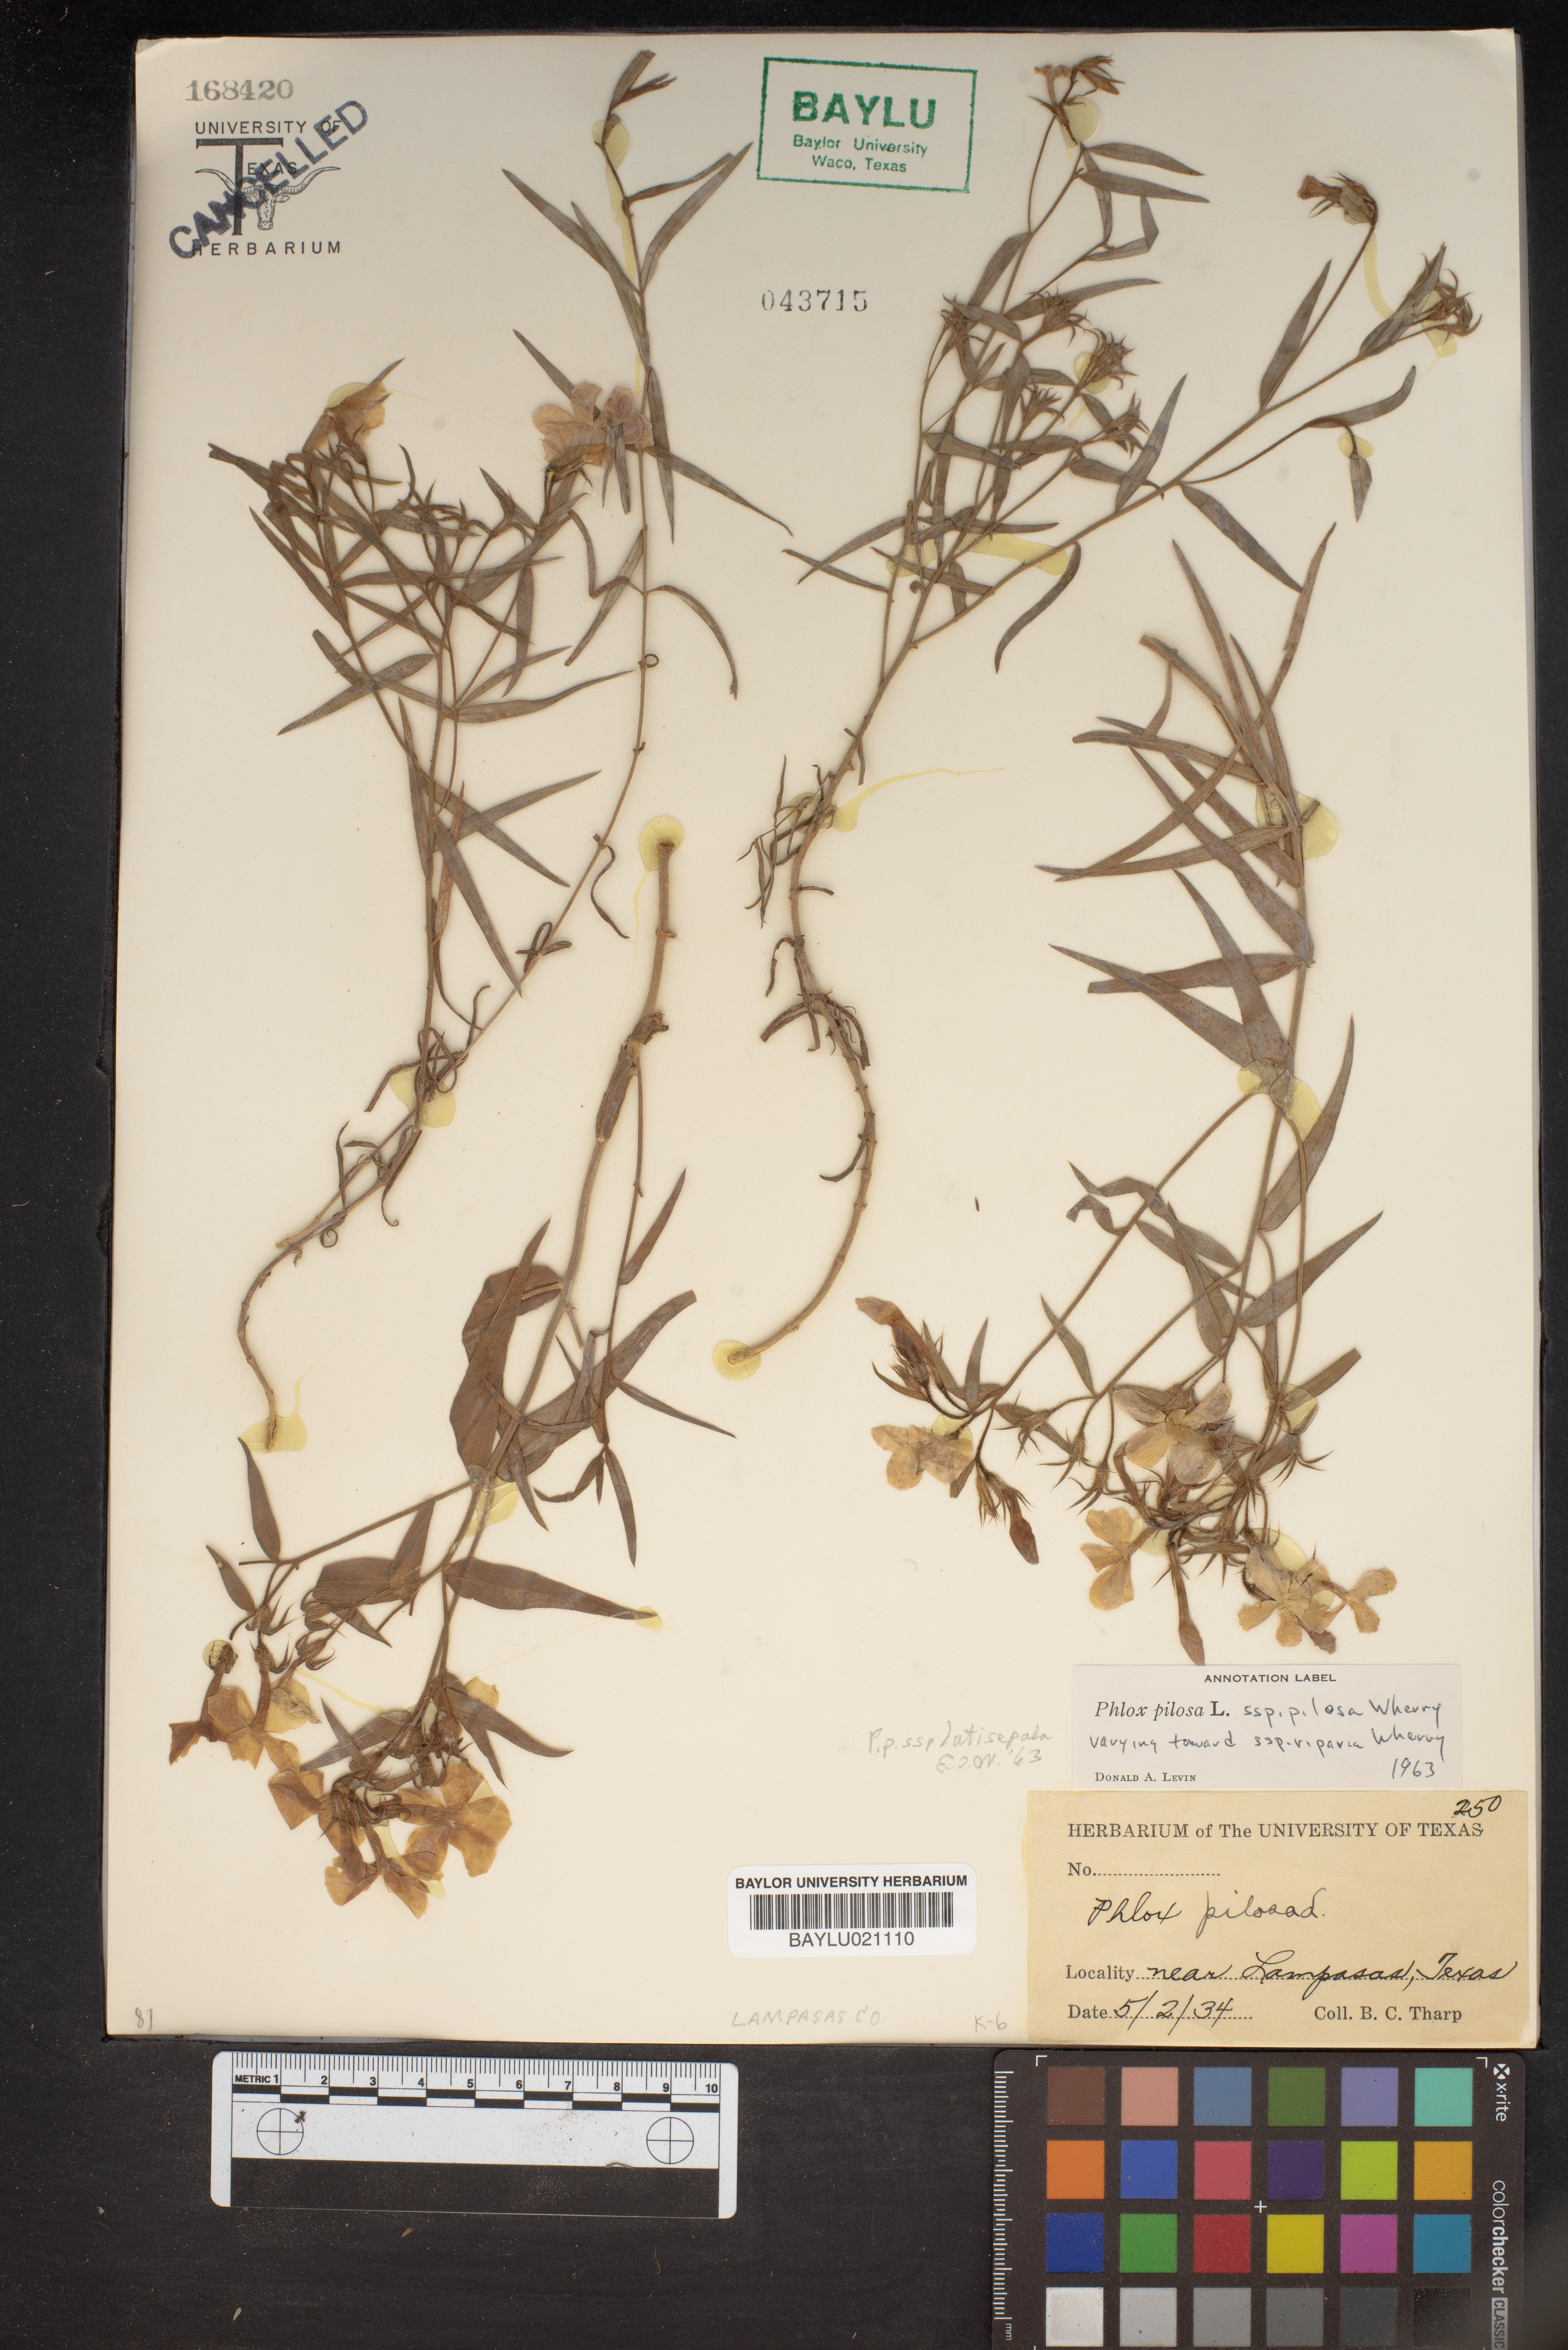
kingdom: Plantae
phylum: Tracheophyta
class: Magnoliopsida
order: Ericales
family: Polemoniaceae
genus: Phlox
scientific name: Phlox pilosa
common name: Prairie phlox
